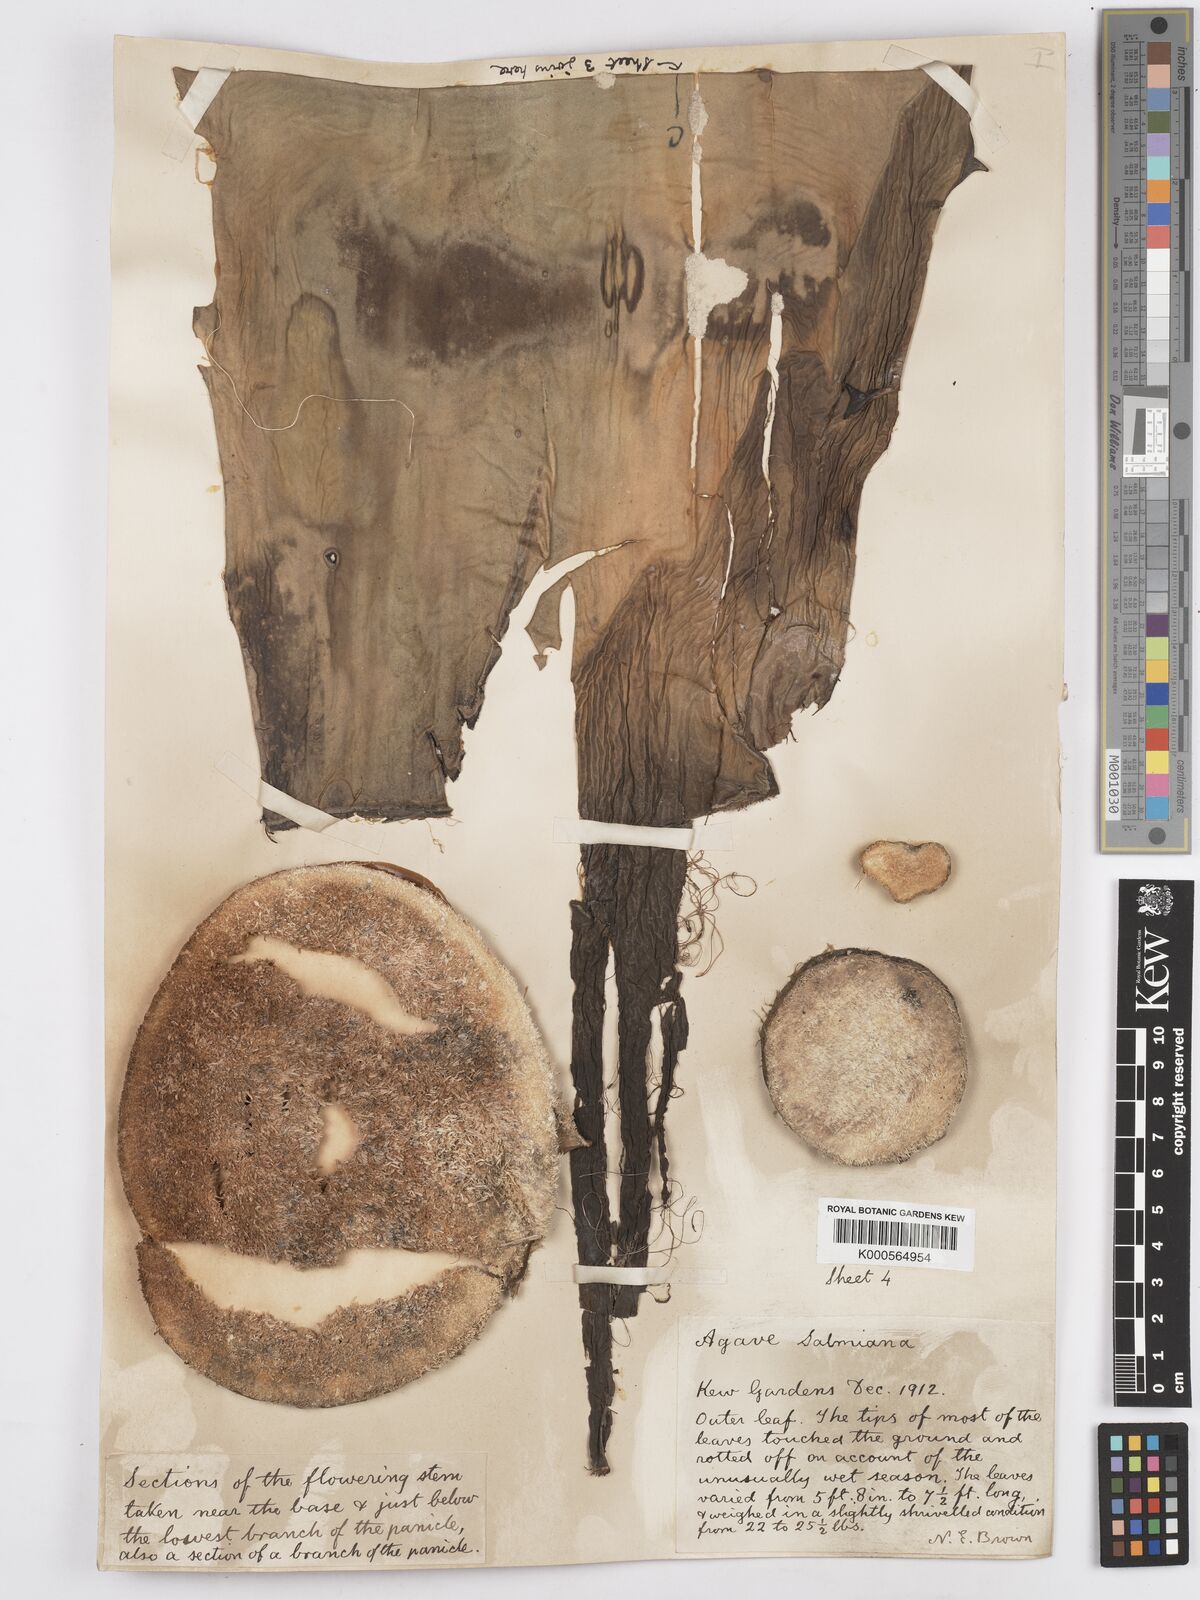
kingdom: Plantae
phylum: Tracheophyta
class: Liliopsida
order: Asparagales
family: Asparagaceae
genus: Agave
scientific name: Agave salmiana
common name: Pulque agave
